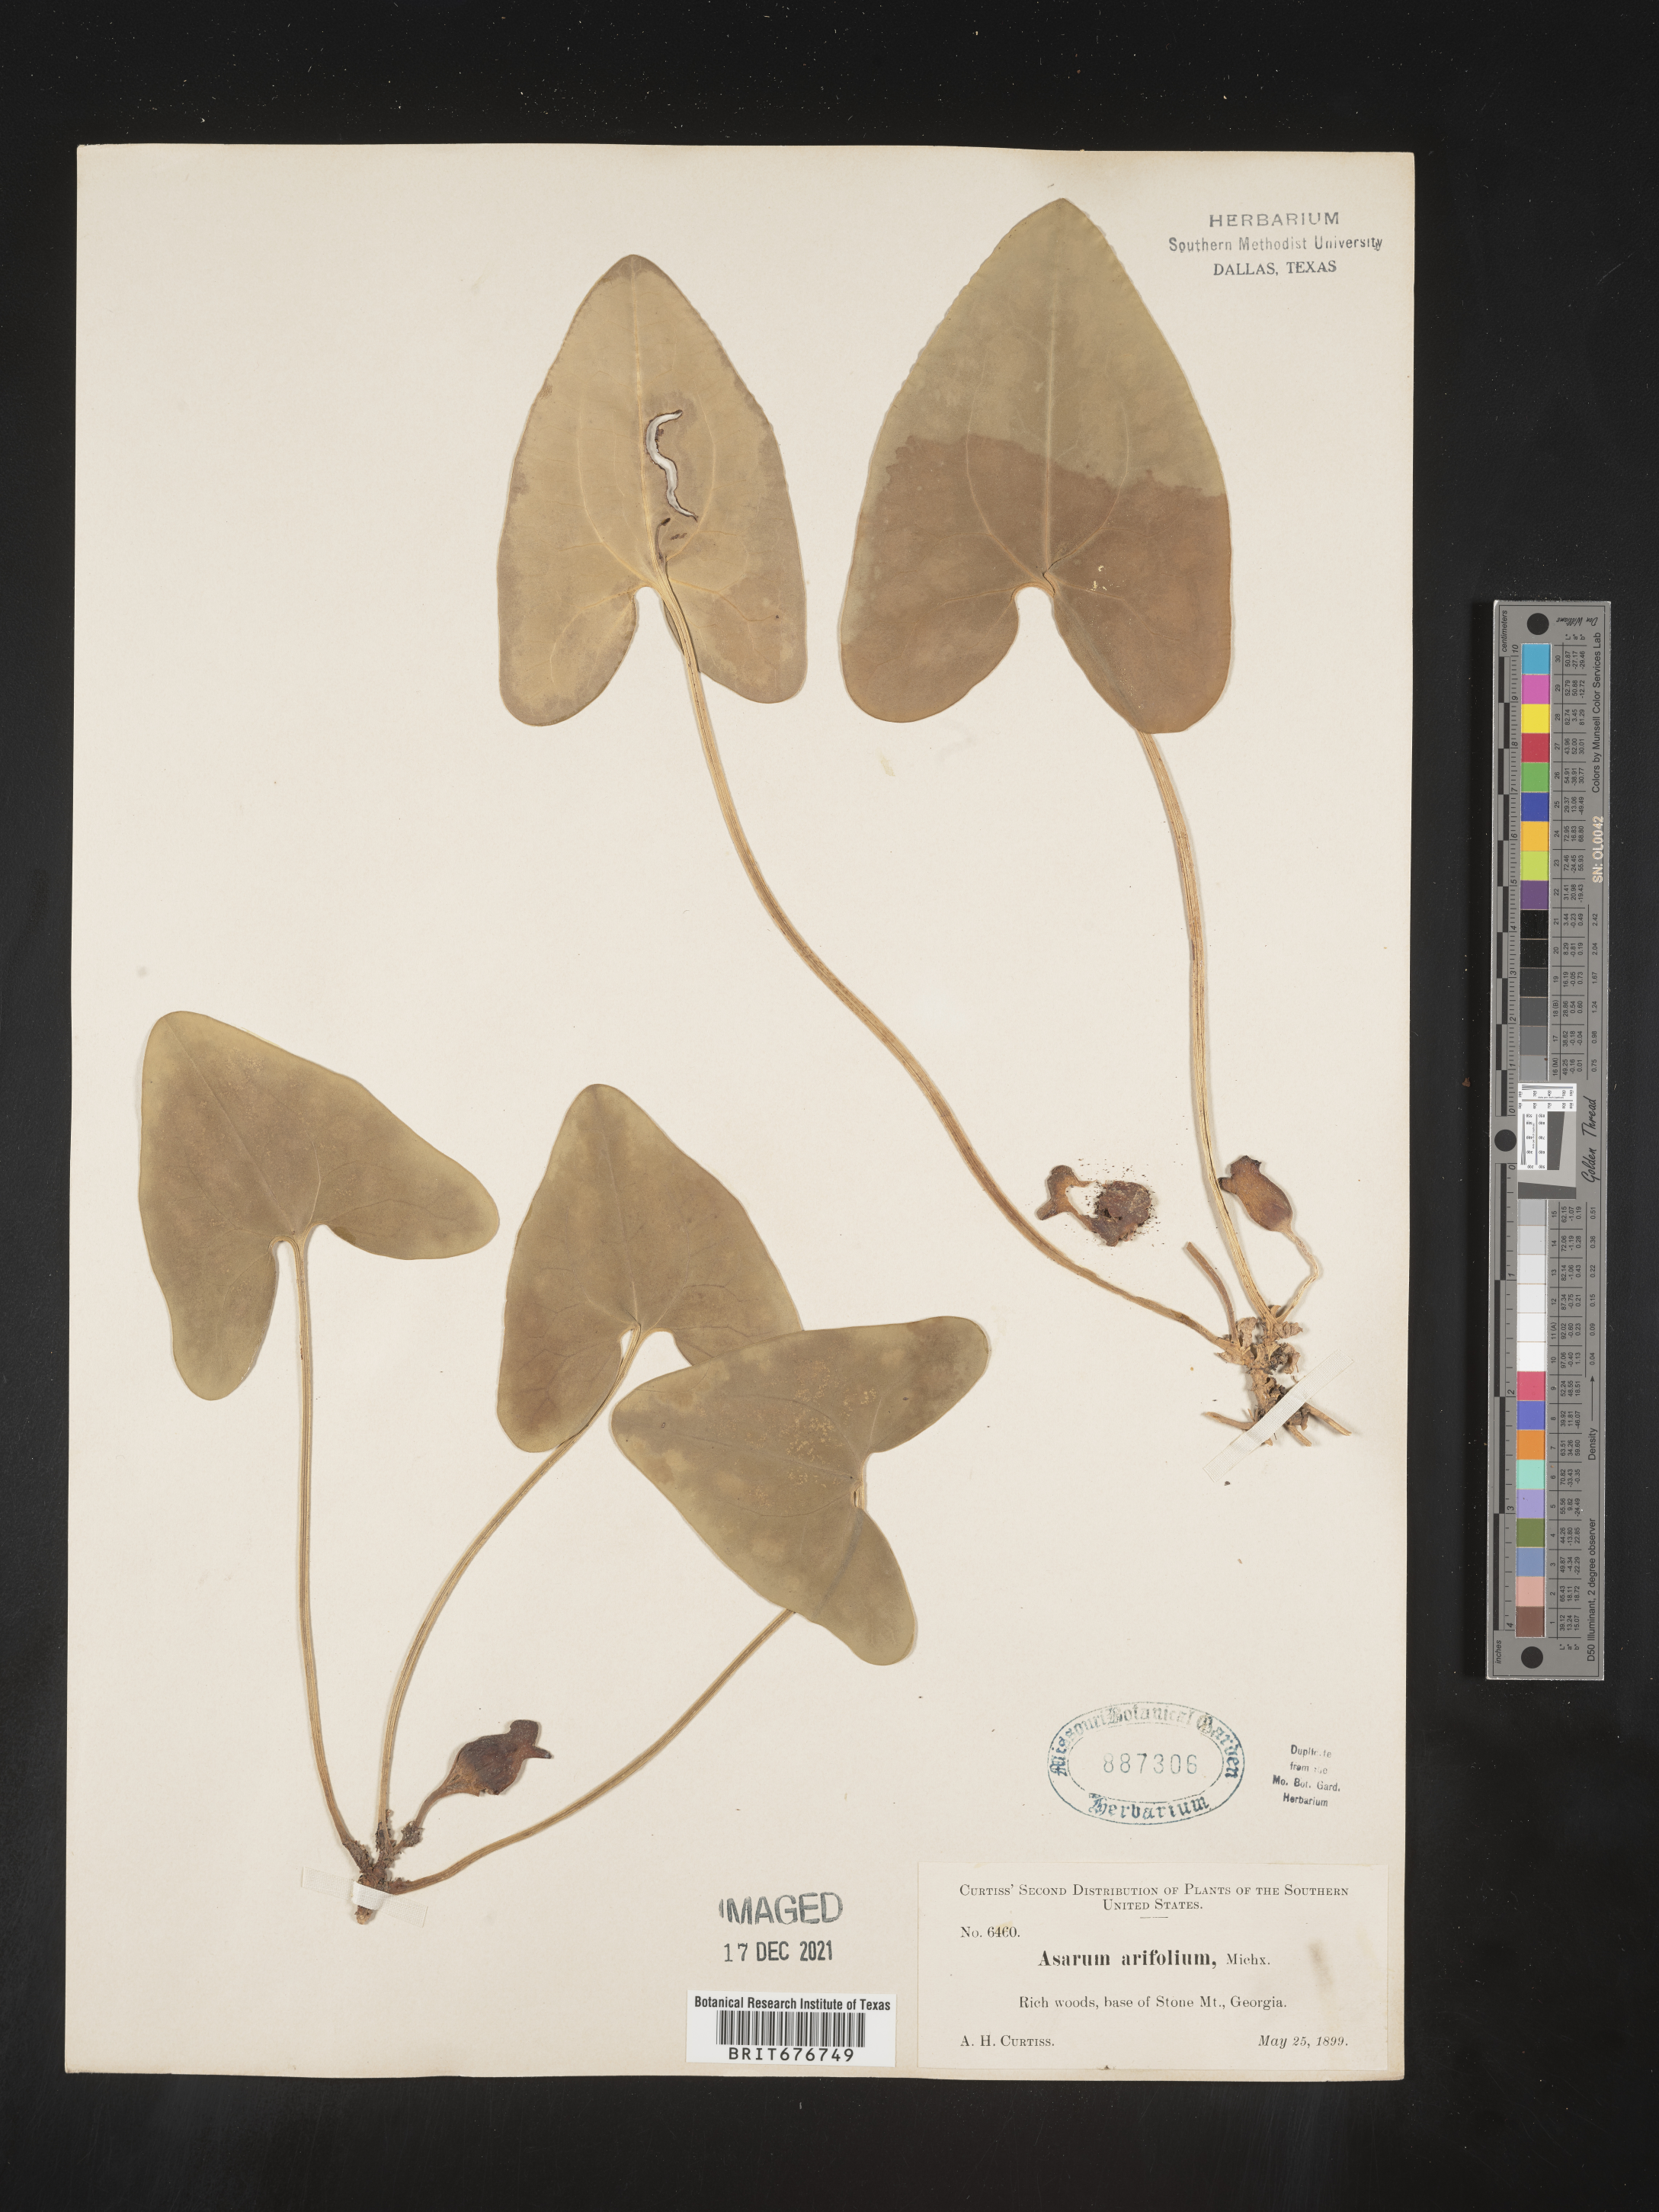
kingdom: Plantae
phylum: Tracheophyta
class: Magnoliopsida
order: Piperales
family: Aristolochiaceae
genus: Hexastylis
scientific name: Hexastylis arifolia
